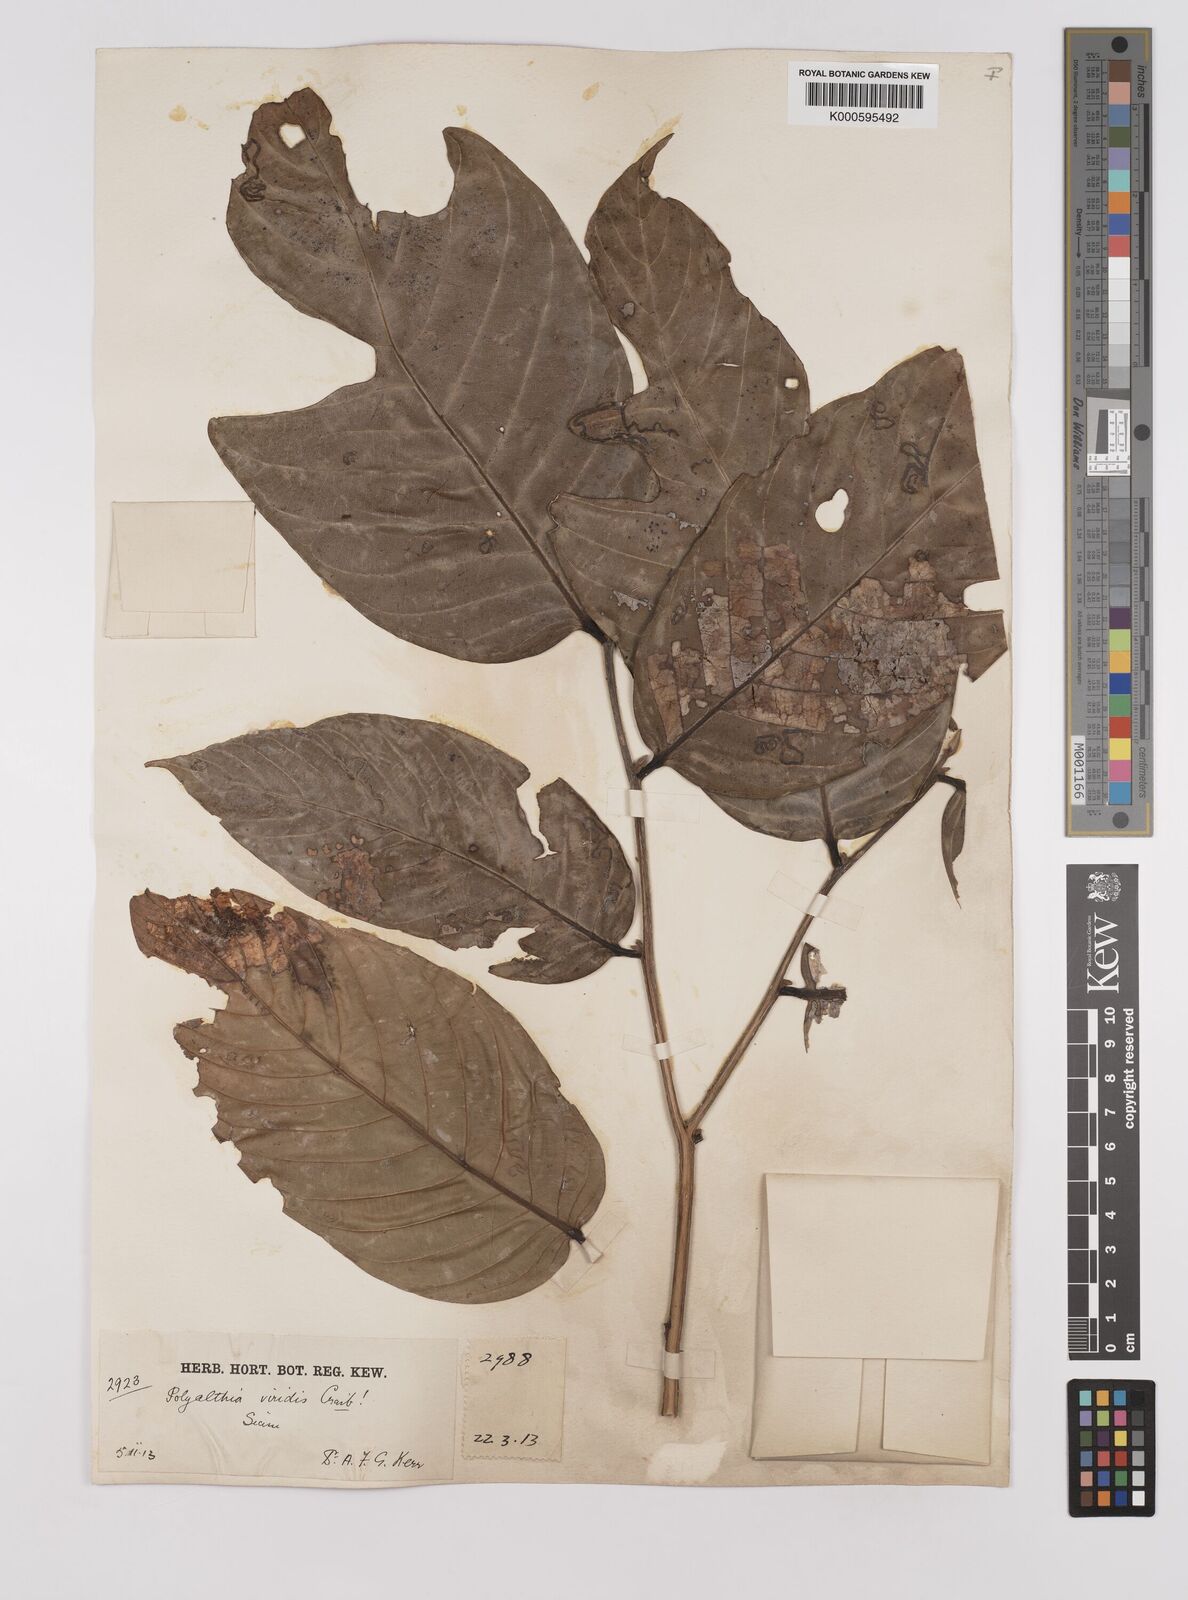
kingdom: Plantae
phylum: Tracheophyta
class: Magnoliopsida
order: Magnoliales
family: Annonaceae
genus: Polyalthia
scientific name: Polyalthia viridis
